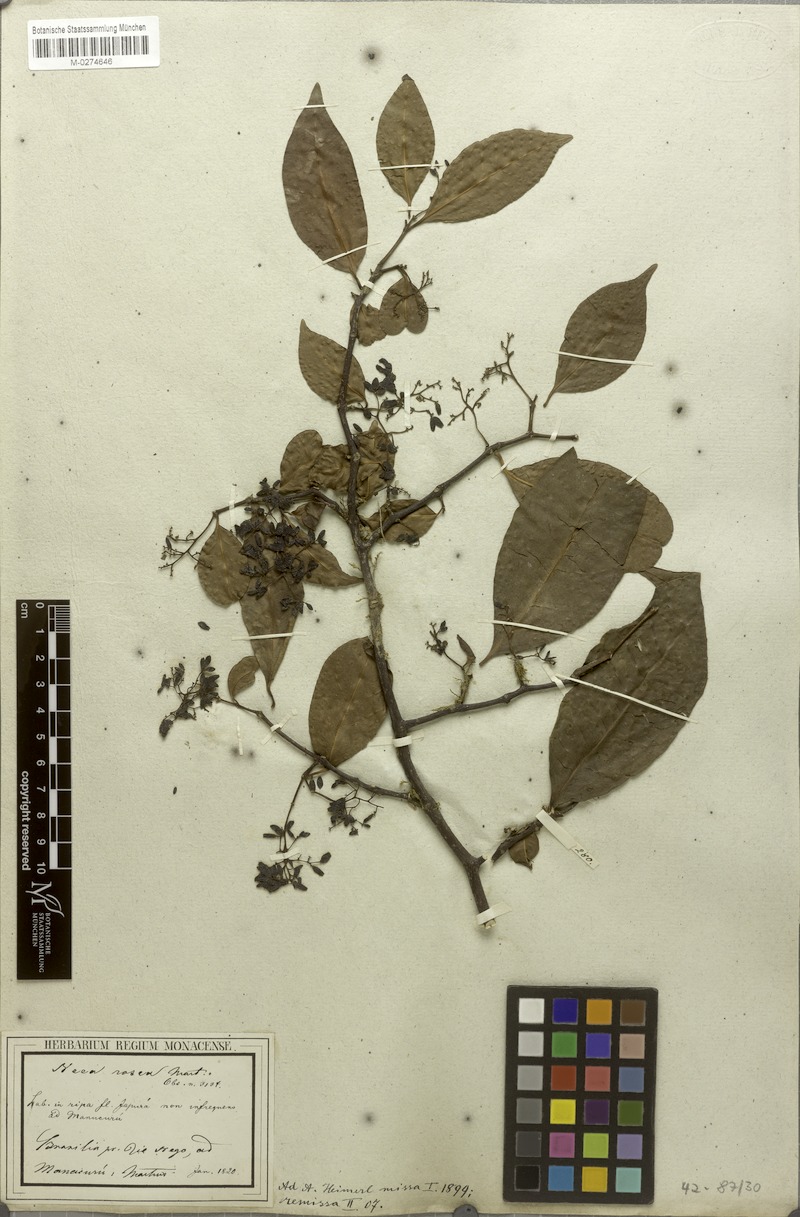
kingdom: Plantae
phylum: Tracheophyta
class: Magnoliopsida
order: Caryophyllales
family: Nyctaginaceae
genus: Neea
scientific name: Neea oppositifolia
